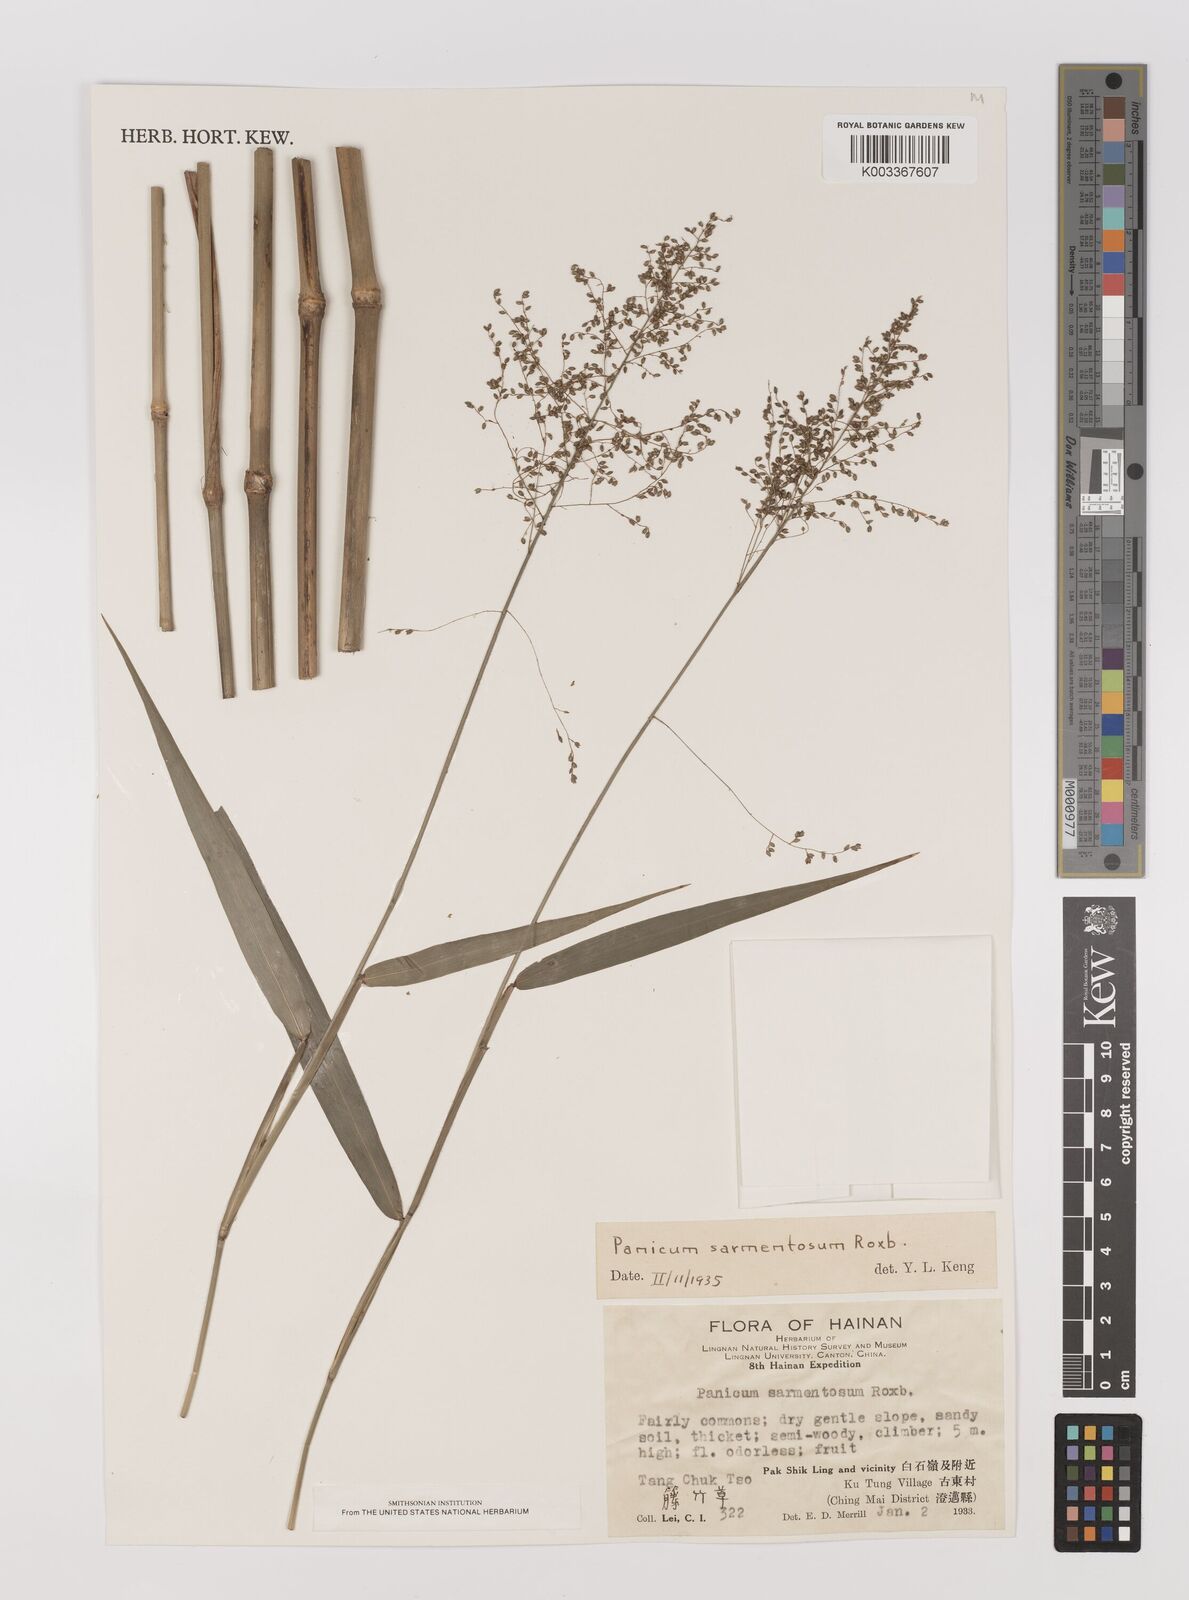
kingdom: Plantae
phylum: Tracheophyta
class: Liliopsida
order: Poales
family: Poaceae
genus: Panicum
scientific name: Panicum sarmentosum
